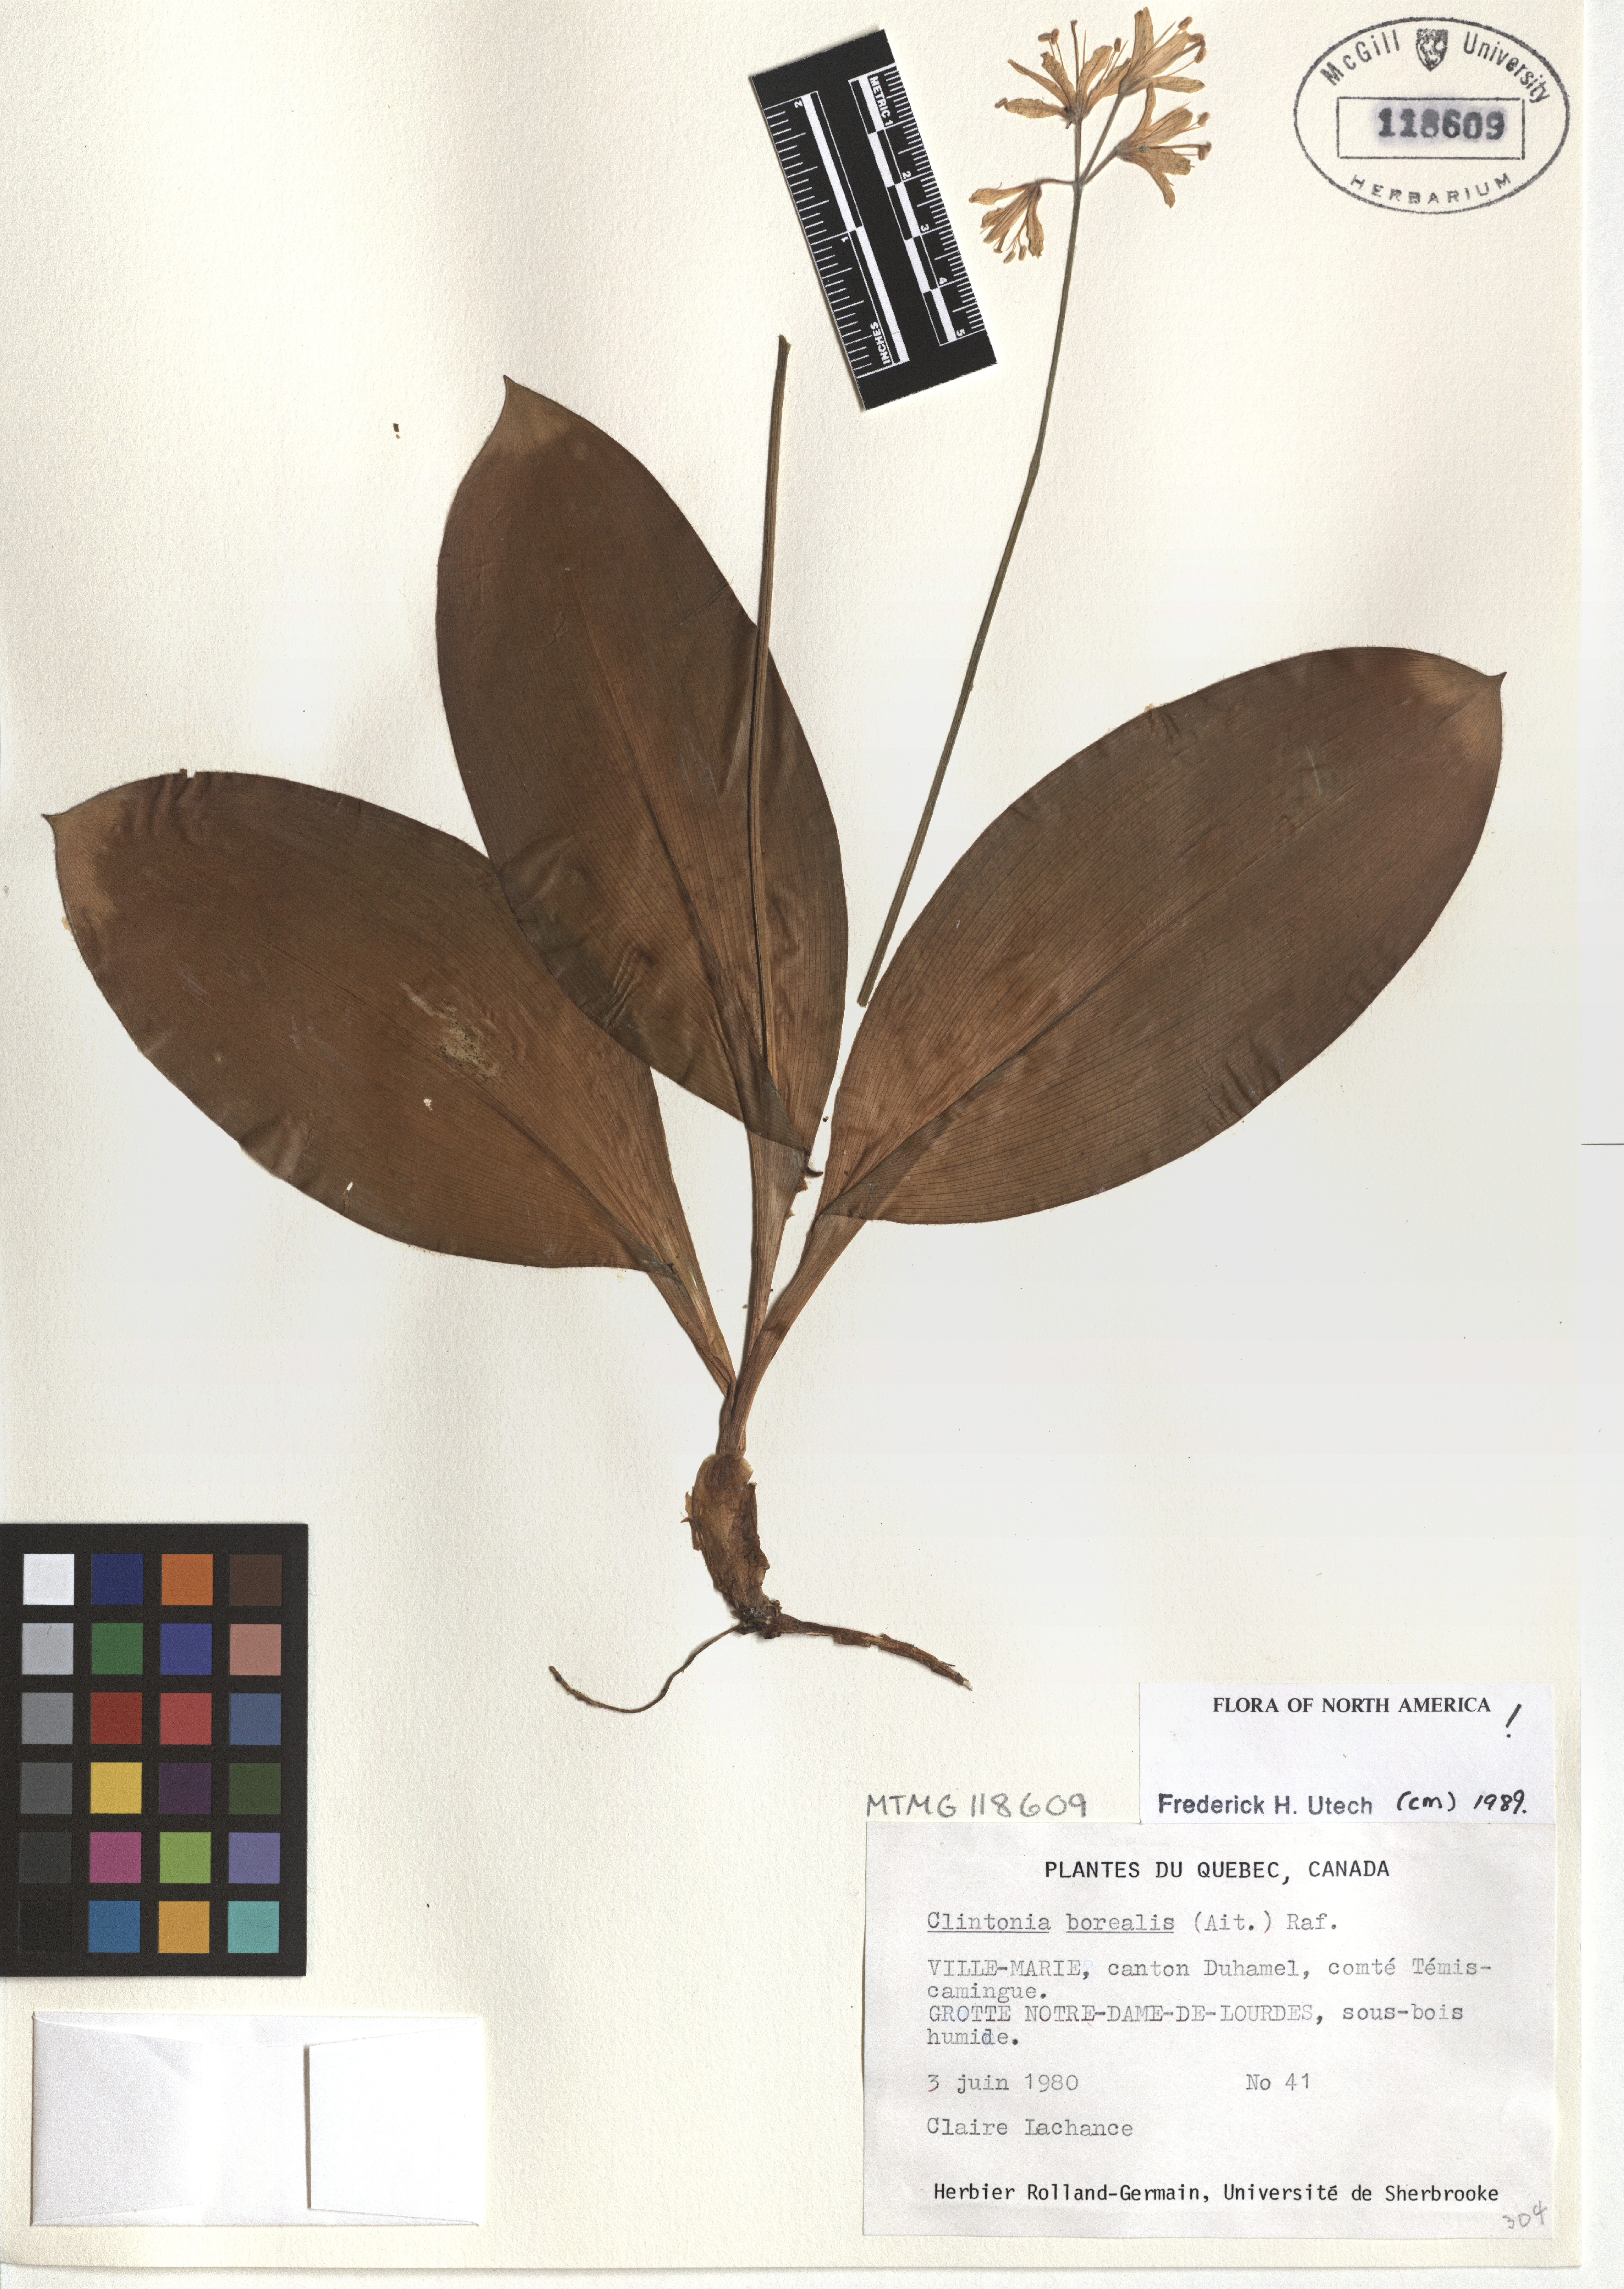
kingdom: Plantae
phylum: Tracheophyta
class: Liliopsida
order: Liliales
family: Liliaceae
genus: Clintonia
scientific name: Clintonia borealis
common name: Yellow clintonia
